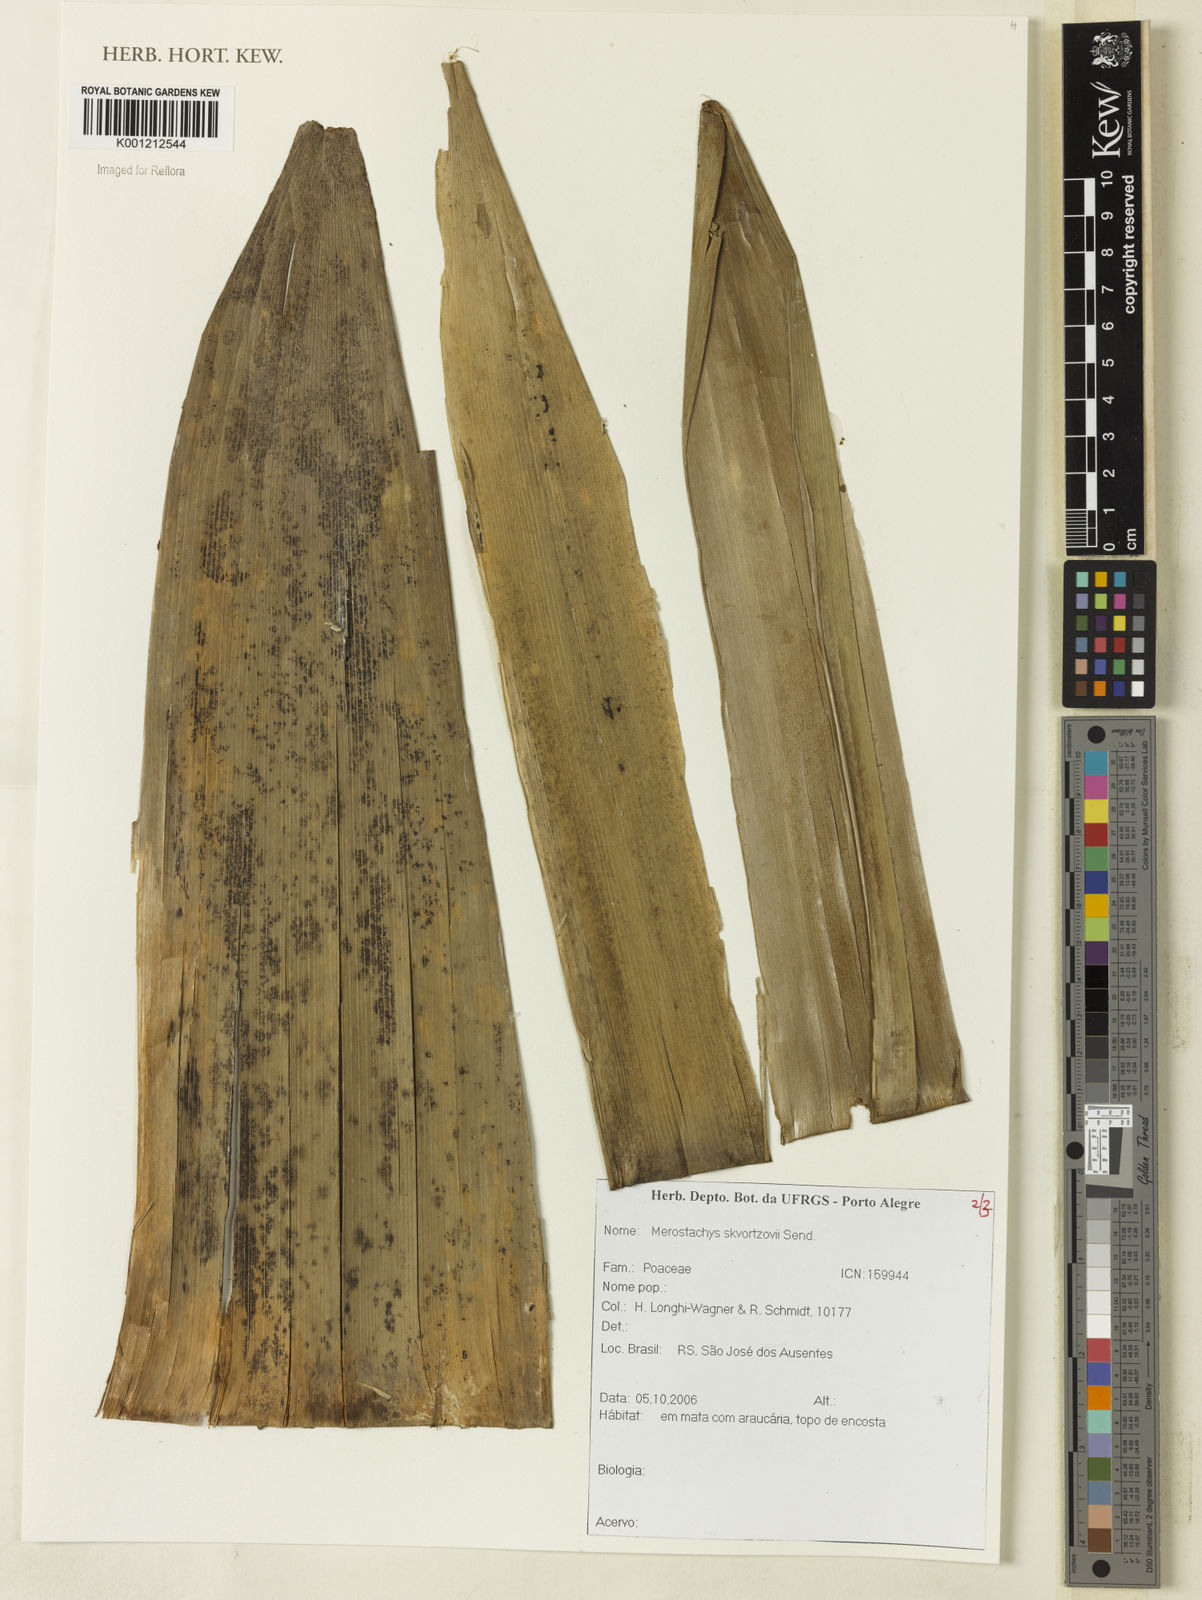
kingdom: Plantae
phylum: Tracheophyta
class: Liliopsida
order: Poales
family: Poaceae
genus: Merostachys
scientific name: Merostachys skvortzovii
